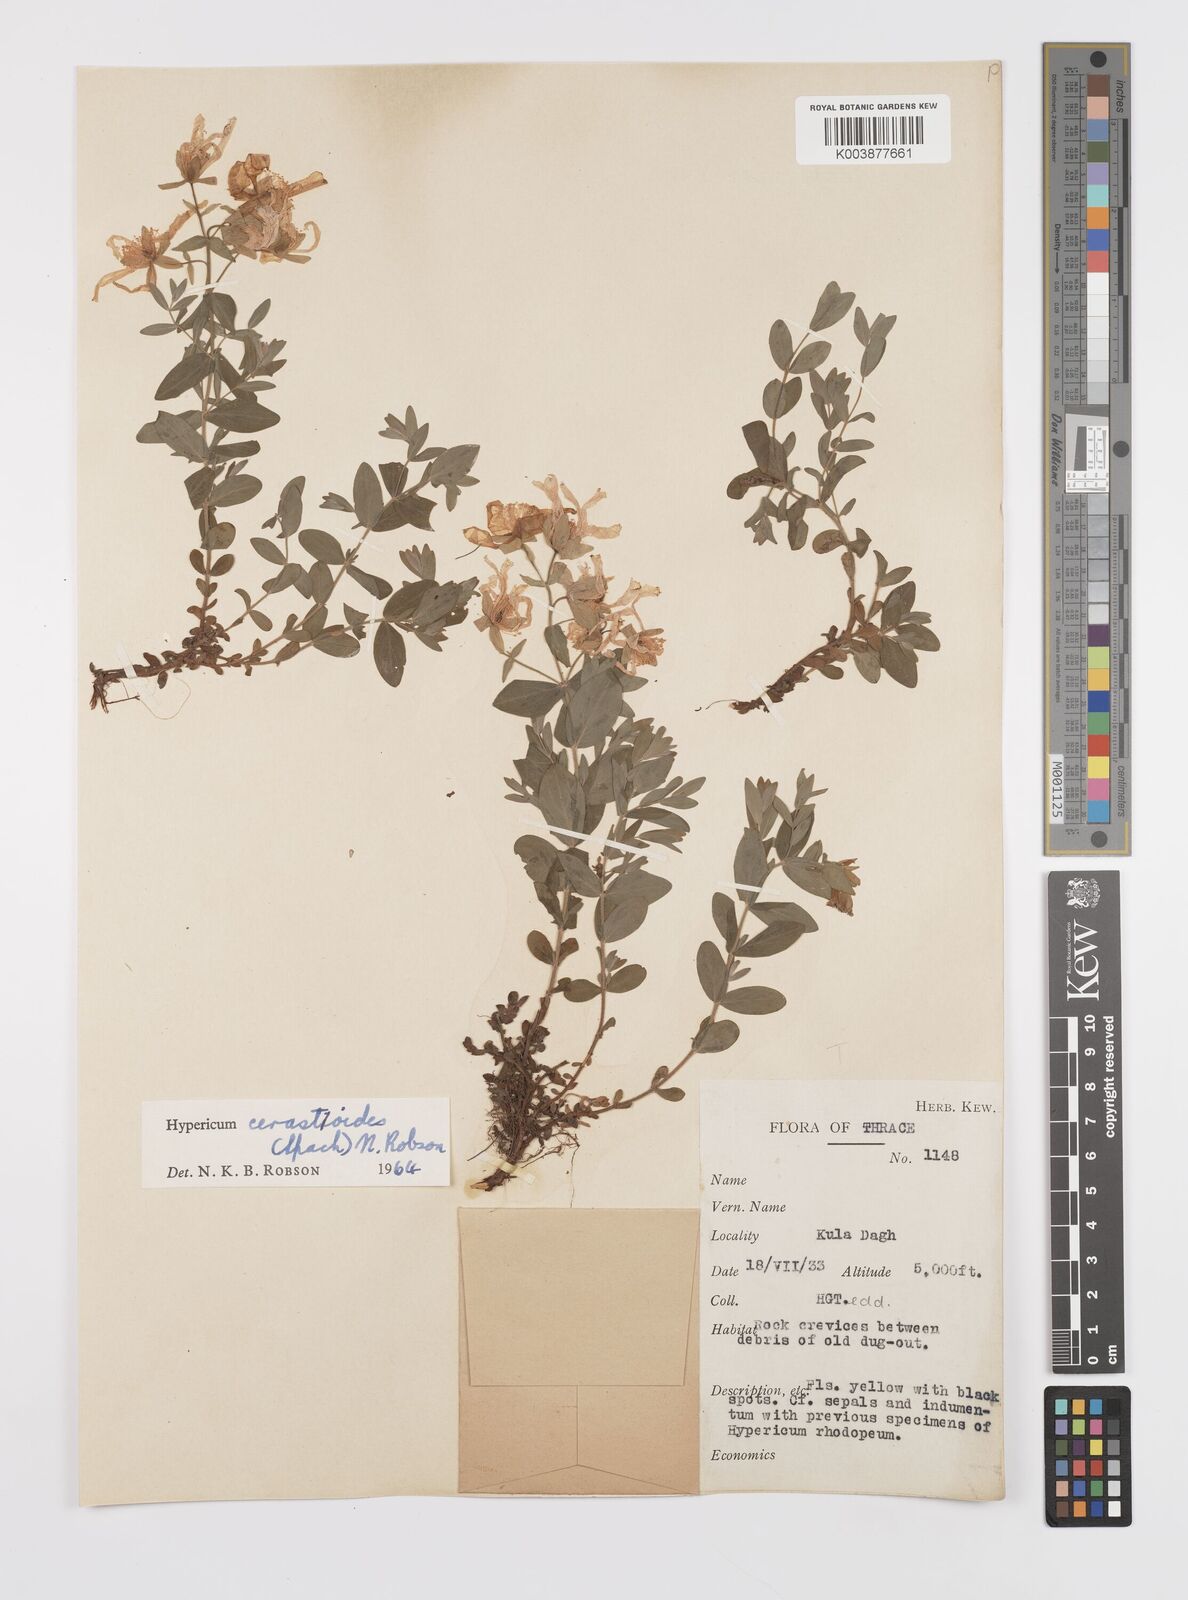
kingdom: Plantae
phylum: Tracheophyta
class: Magnoliopsida
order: Malpighiales
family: Hypericaceae
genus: Hypericum
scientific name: Hypericum cerastoides
